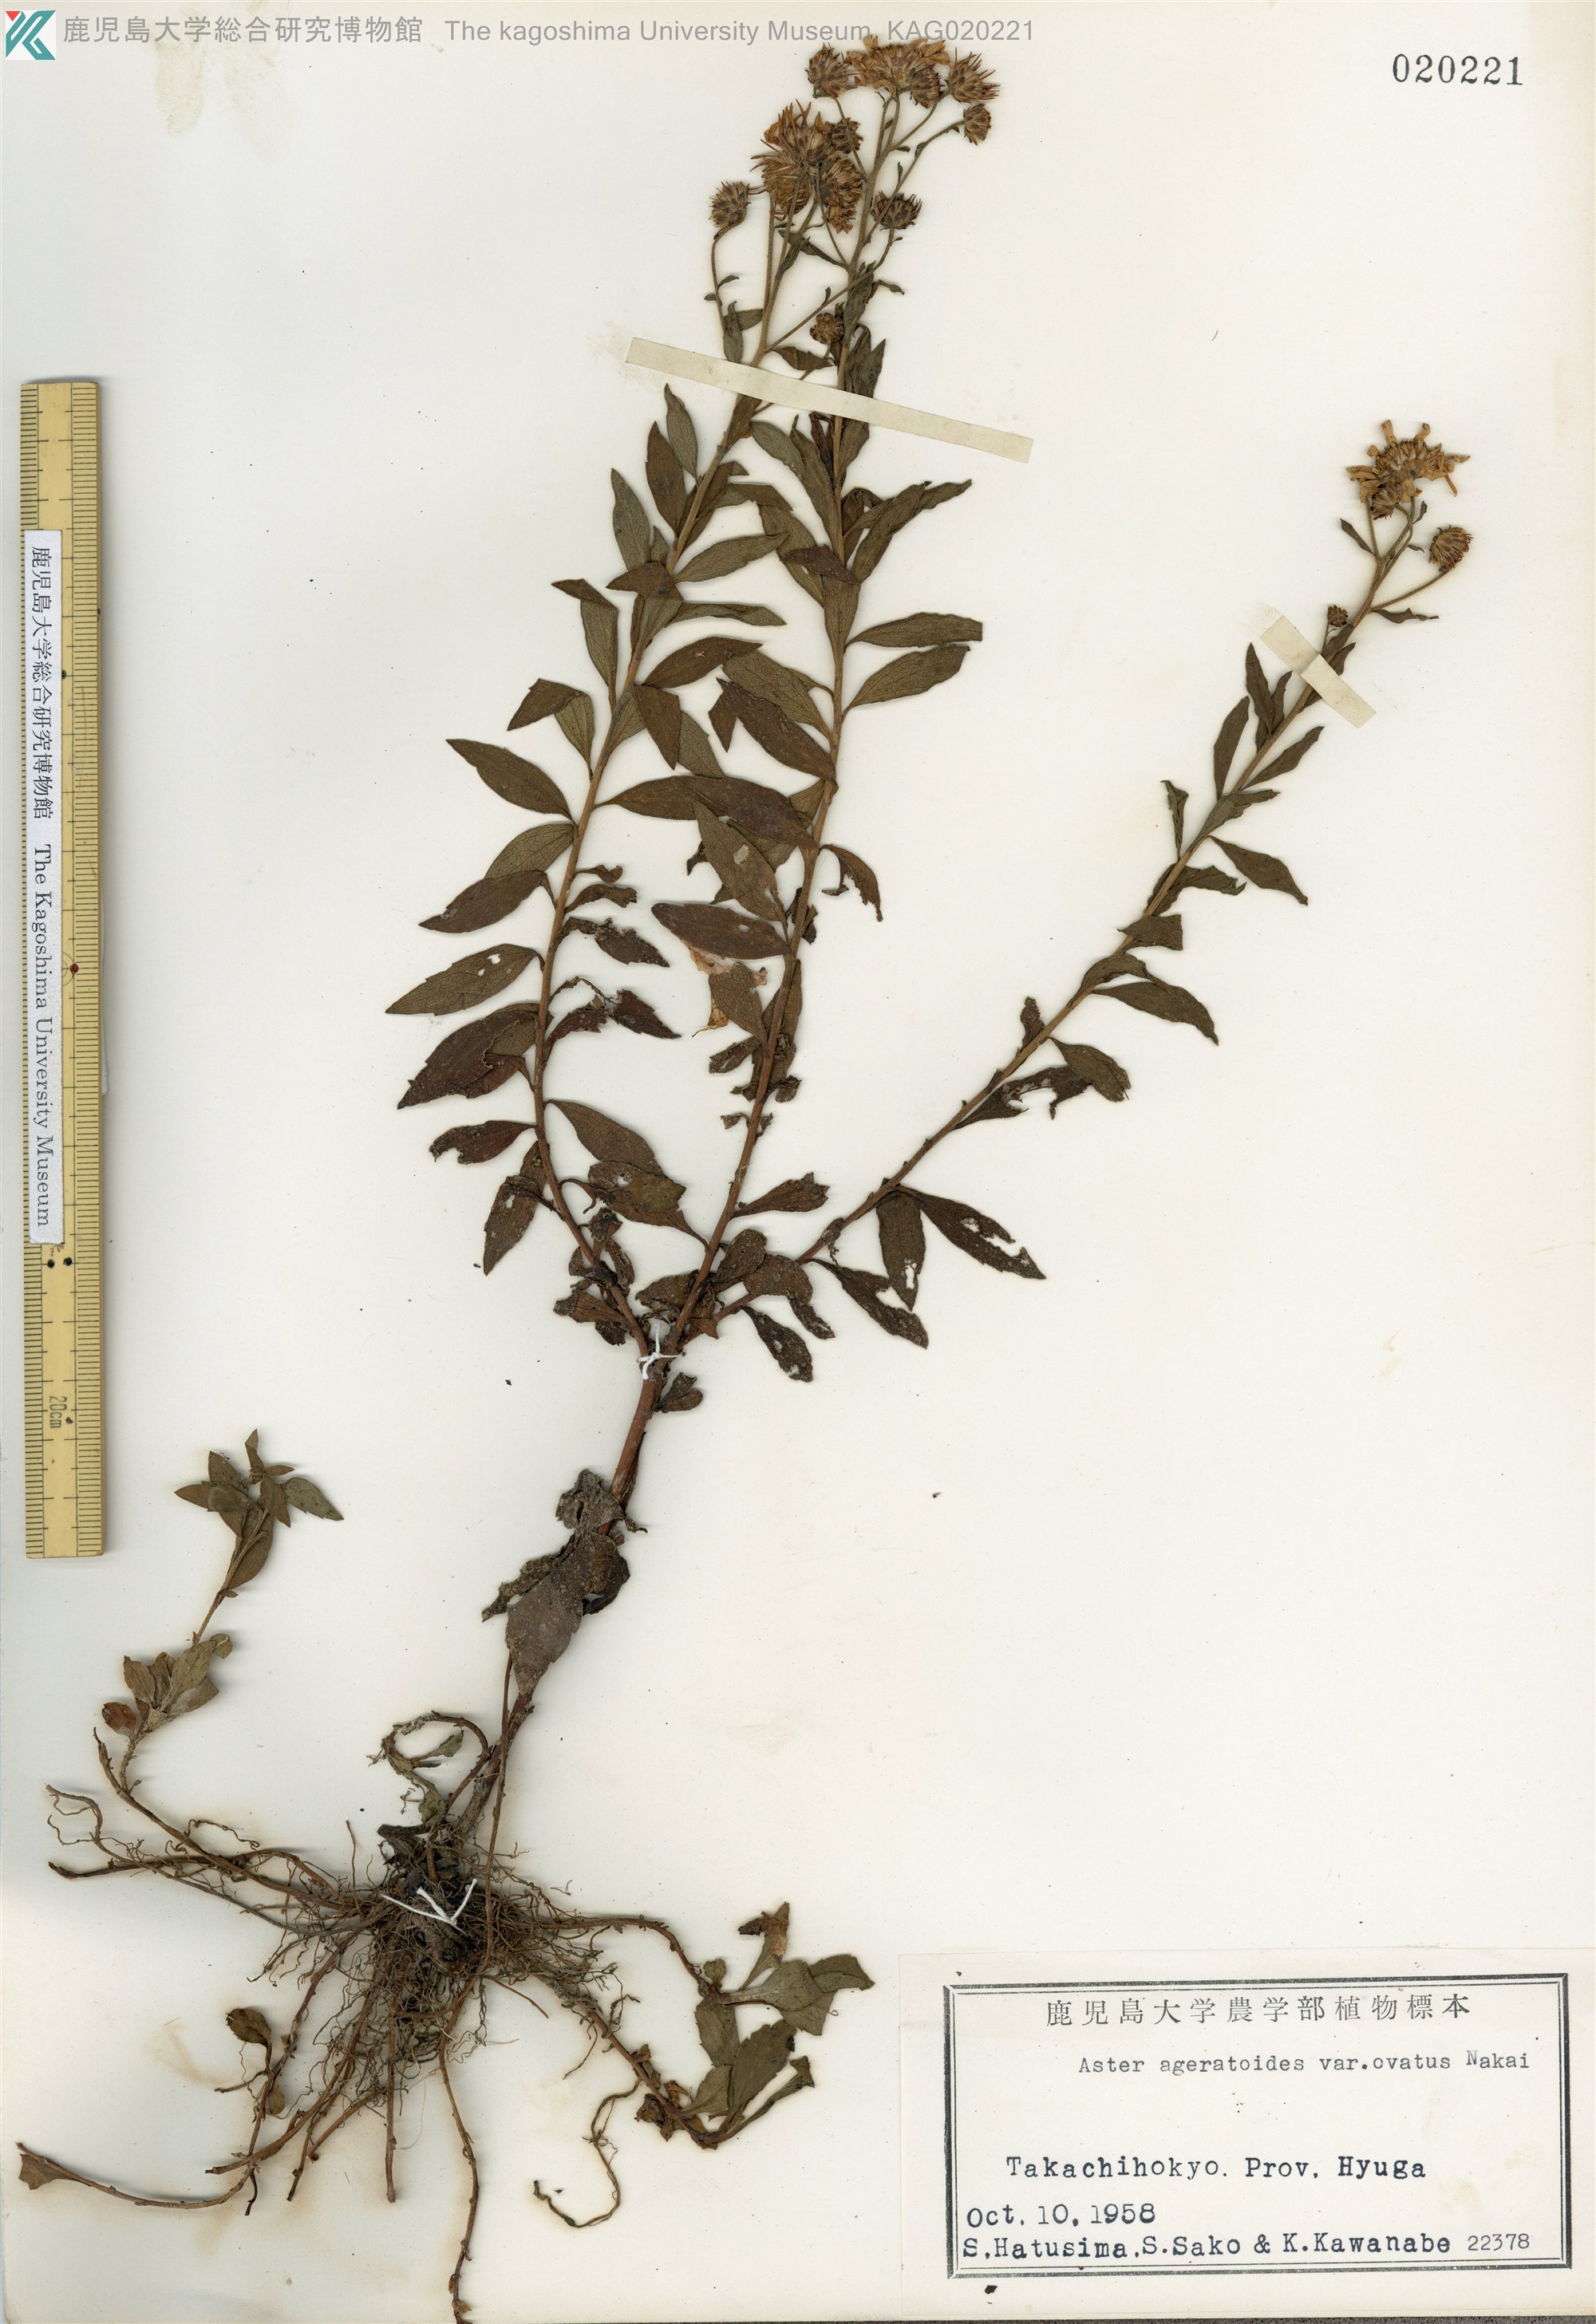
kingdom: Plantae
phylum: Tracheophyta
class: Magnoliopsida
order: Asterales
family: Asteraceae
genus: Aster
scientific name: Aster microcephalus
